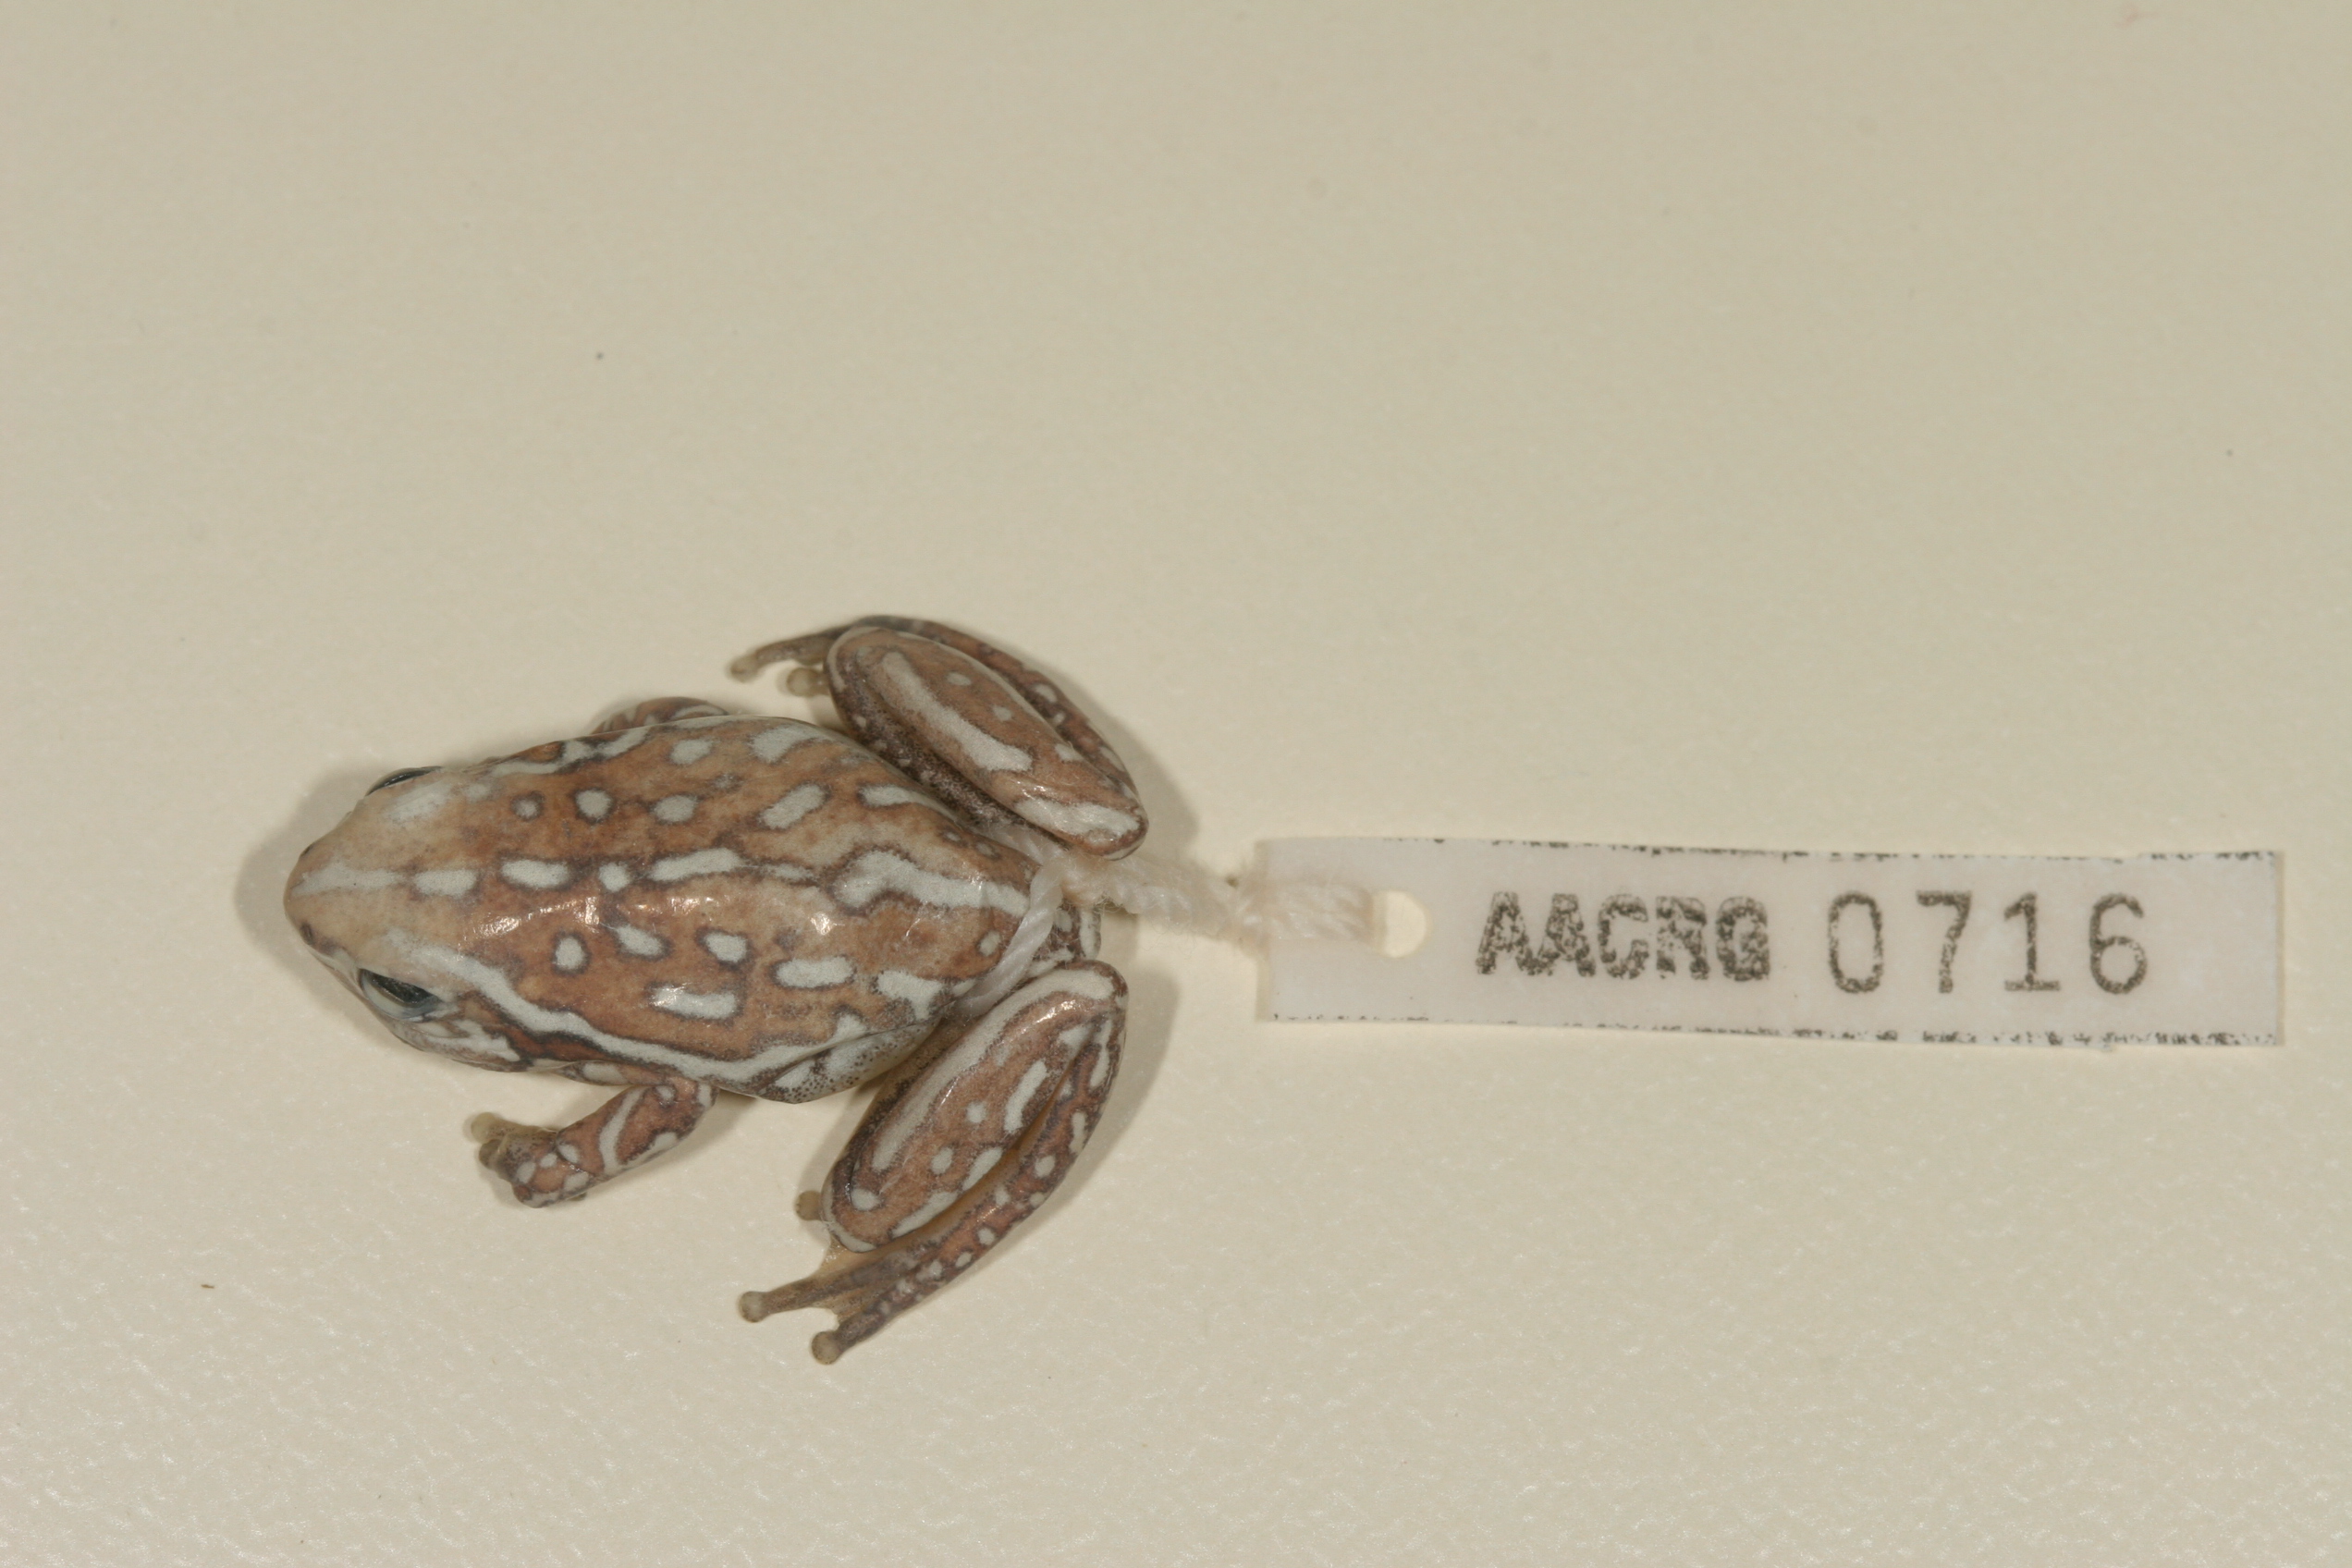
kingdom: Animalia
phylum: Chordata
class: Amphibia
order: Anura
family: Hyperoliidae
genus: Hyperolius
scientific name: Hyperolius parallelus
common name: Angolan reed frog
